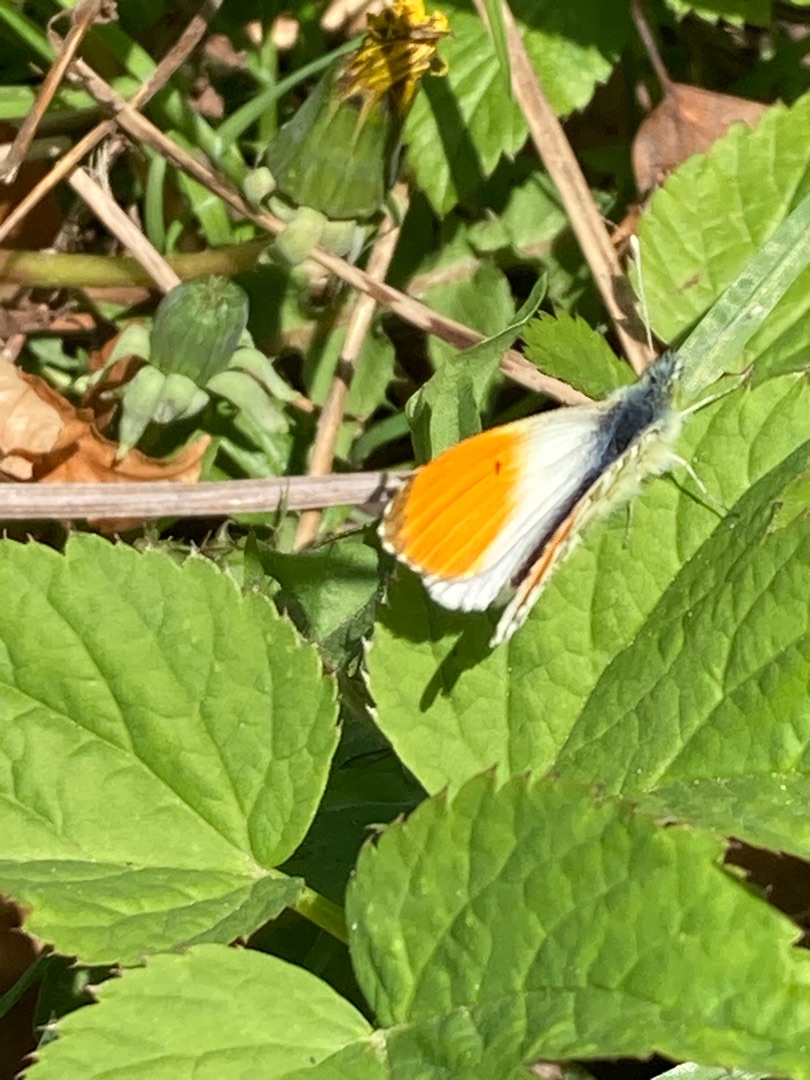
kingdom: Animalia
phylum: Arthropoda
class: Insecta
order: Lepidoptera
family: Pieridae
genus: Anthocharis
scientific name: Anthocharis cardamines
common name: Aurora
